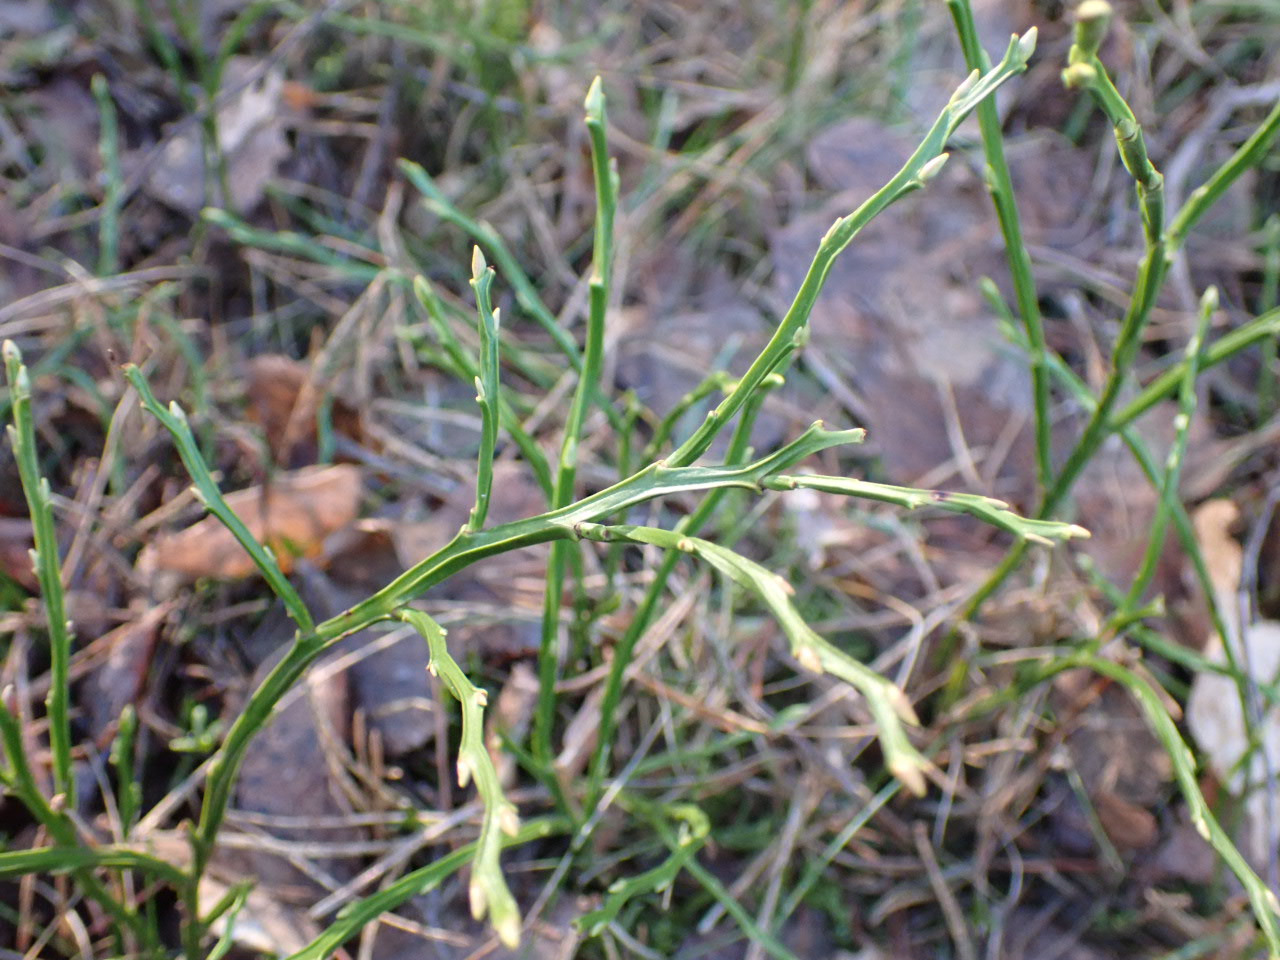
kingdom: Plantae
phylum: Tracheophyta
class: Magnoliopsida
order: Ericales
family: Ericaceae
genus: Vaccinium
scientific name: Vaccinium myrtillus
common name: Blåbær
